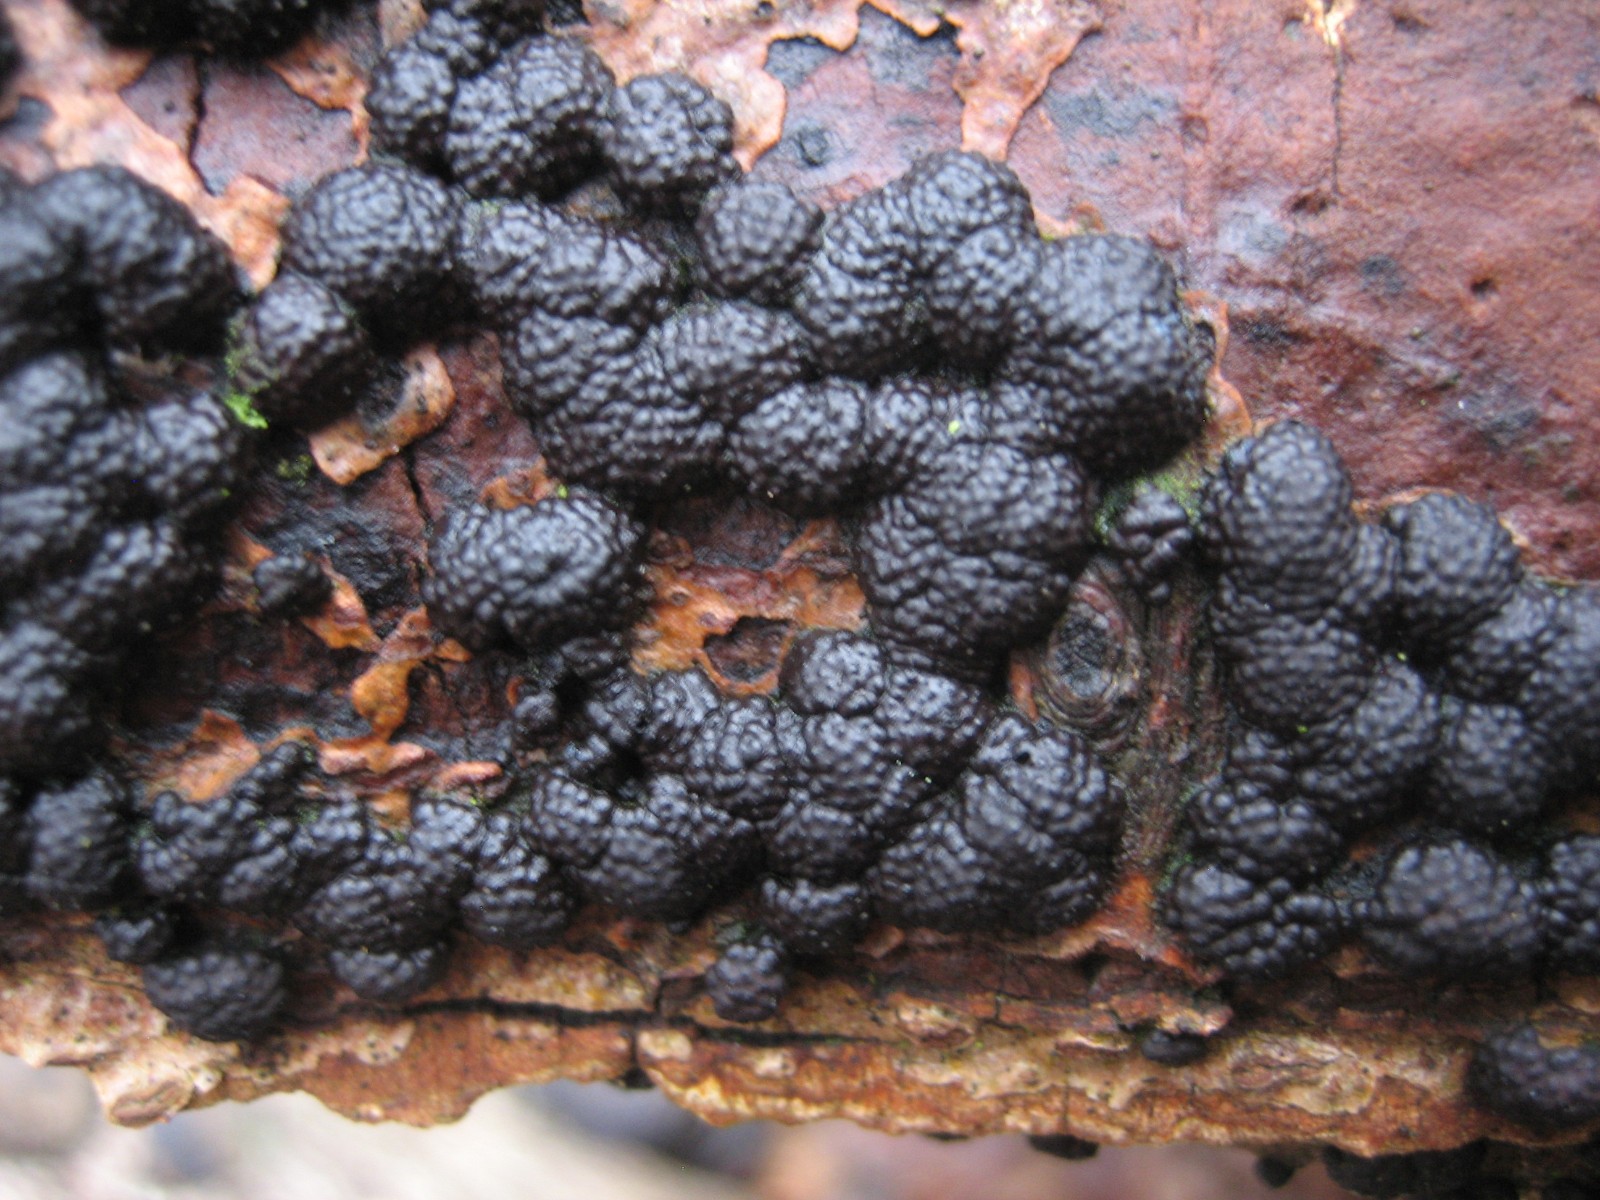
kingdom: Fungi
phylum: Ascomycota
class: Sordariomycetes
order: Xylariales
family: Hypoxylaceae
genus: Jackrogersella
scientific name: Jackrogersella multiformis
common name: foranderlig kulbær
